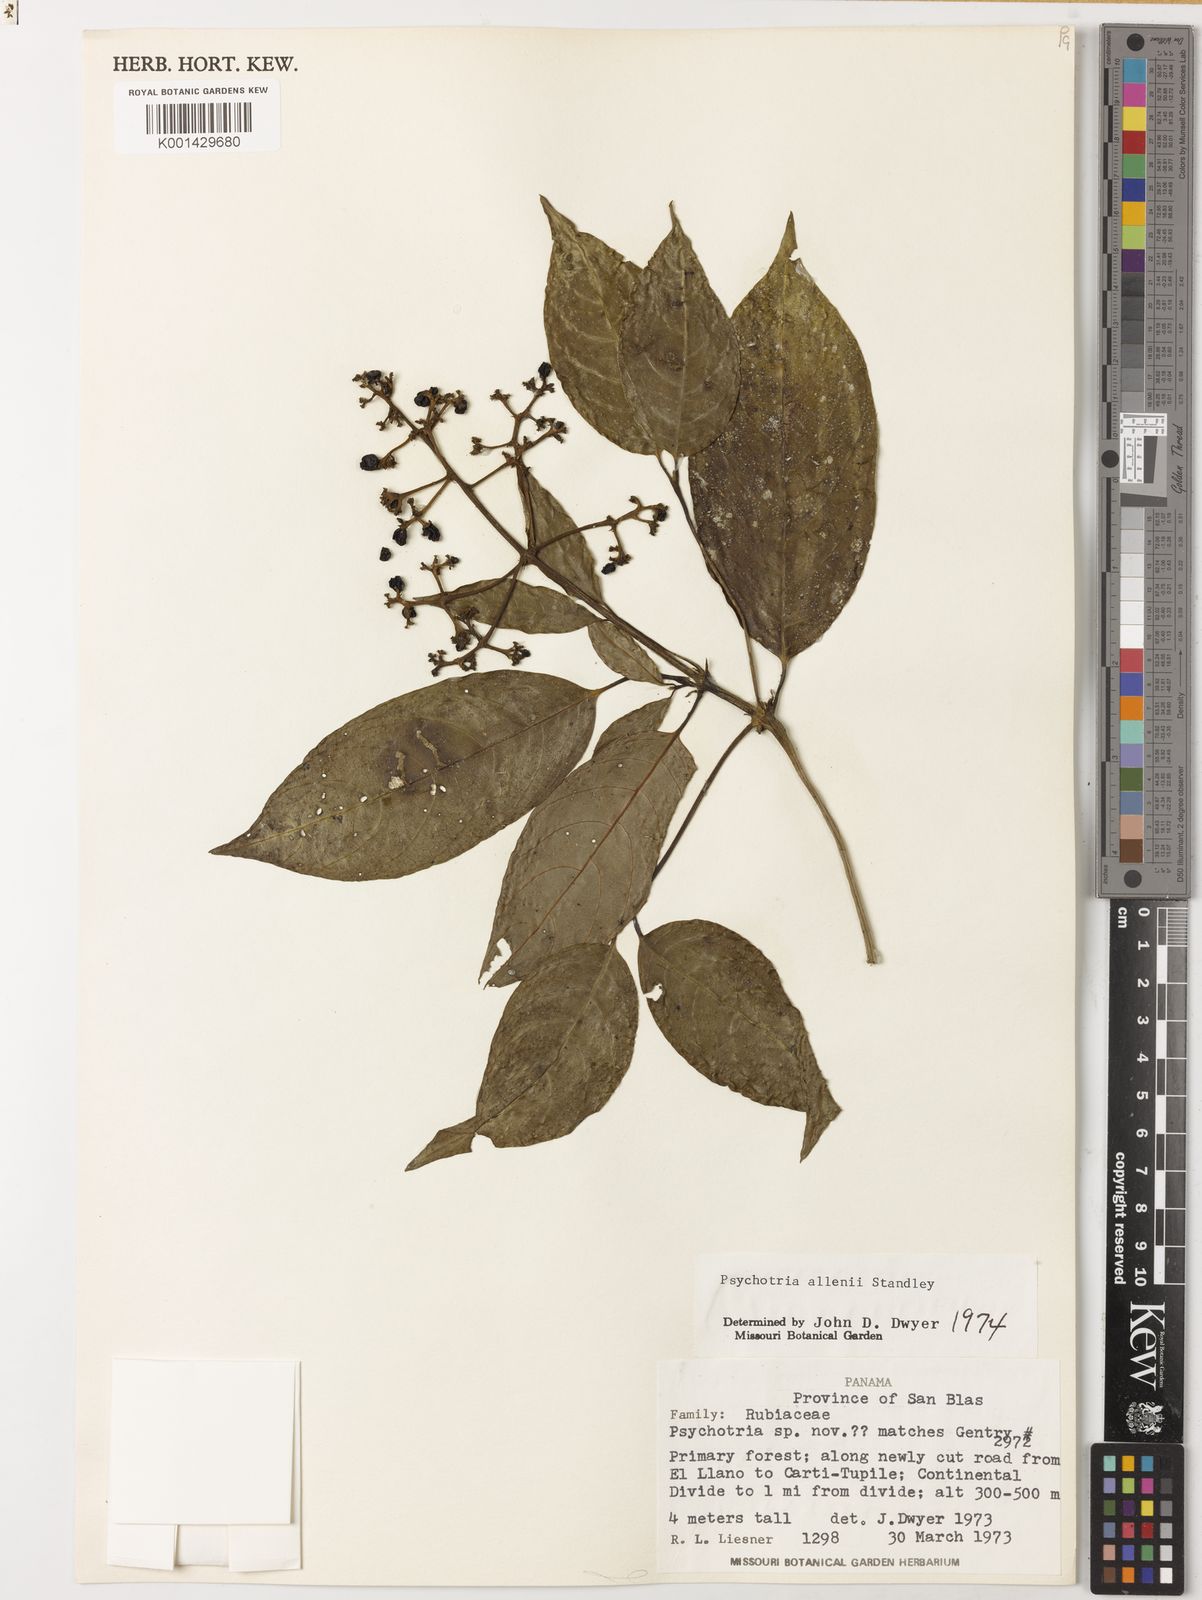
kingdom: Plantae
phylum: Tracheophyta
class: Magnoliopsida
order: Gentianales
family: Rubiaceae
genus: Palicourea
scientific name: Palicourea allenii
